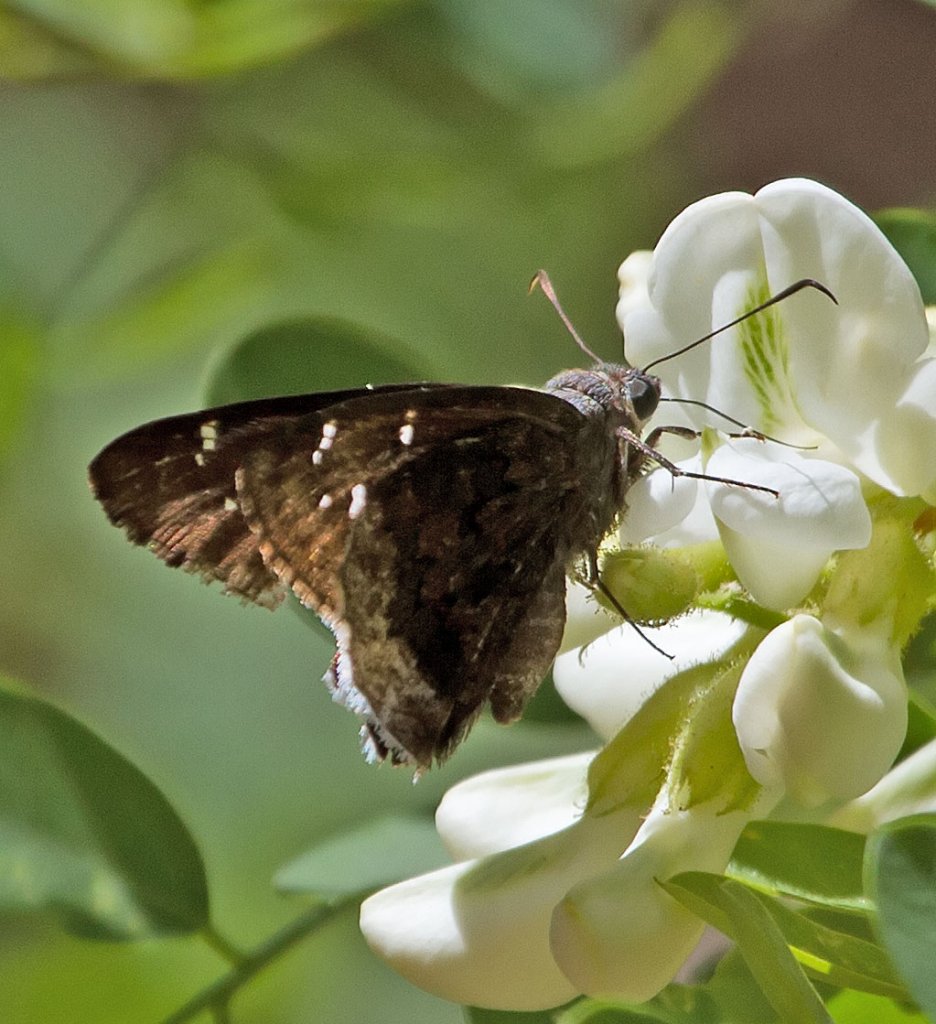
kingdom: Animalia
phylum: Arthropoda
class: Insecta
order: Lepidoptera
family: Hesperiidae
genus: Achalarus
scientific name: Achalarus casica
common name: Desert Cloudywing
